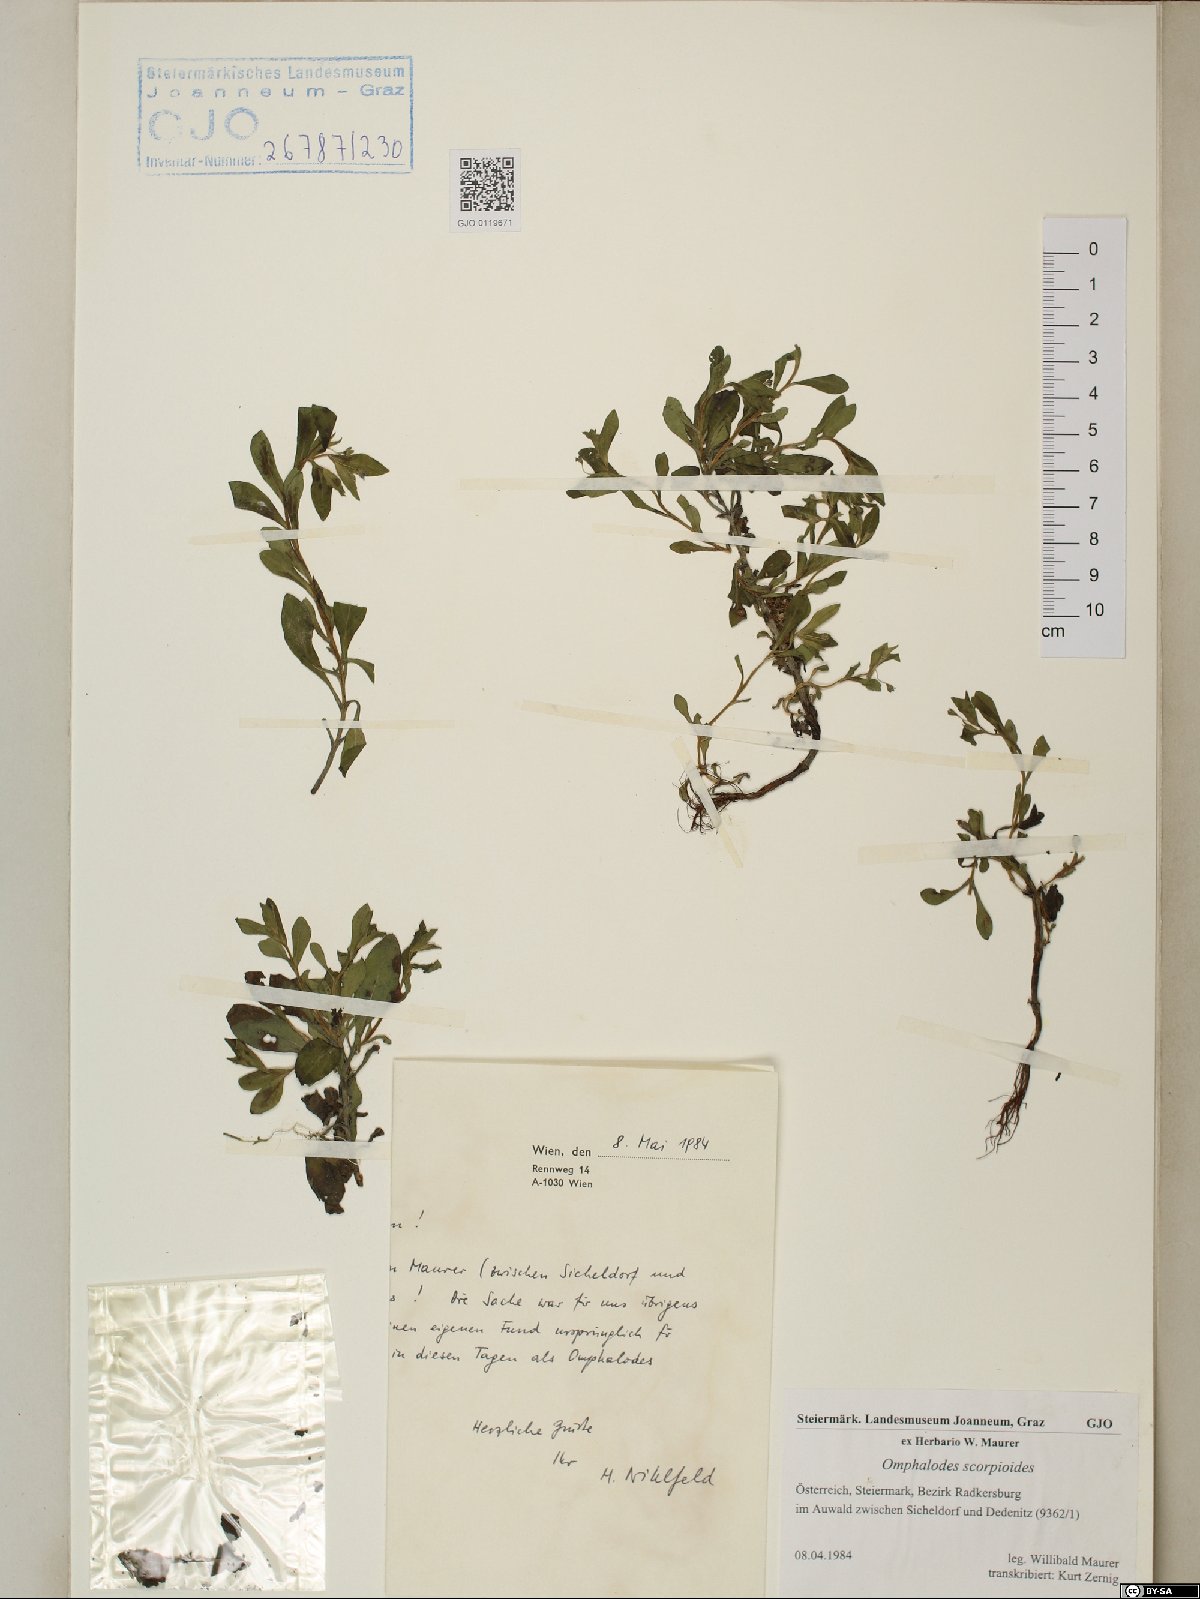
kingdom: Plantae
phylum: Tracheophyta
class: Magnoliopsida
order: Boraginales
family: Boraginaceae
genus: Memoremea
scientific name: Memoremea scorpioides
